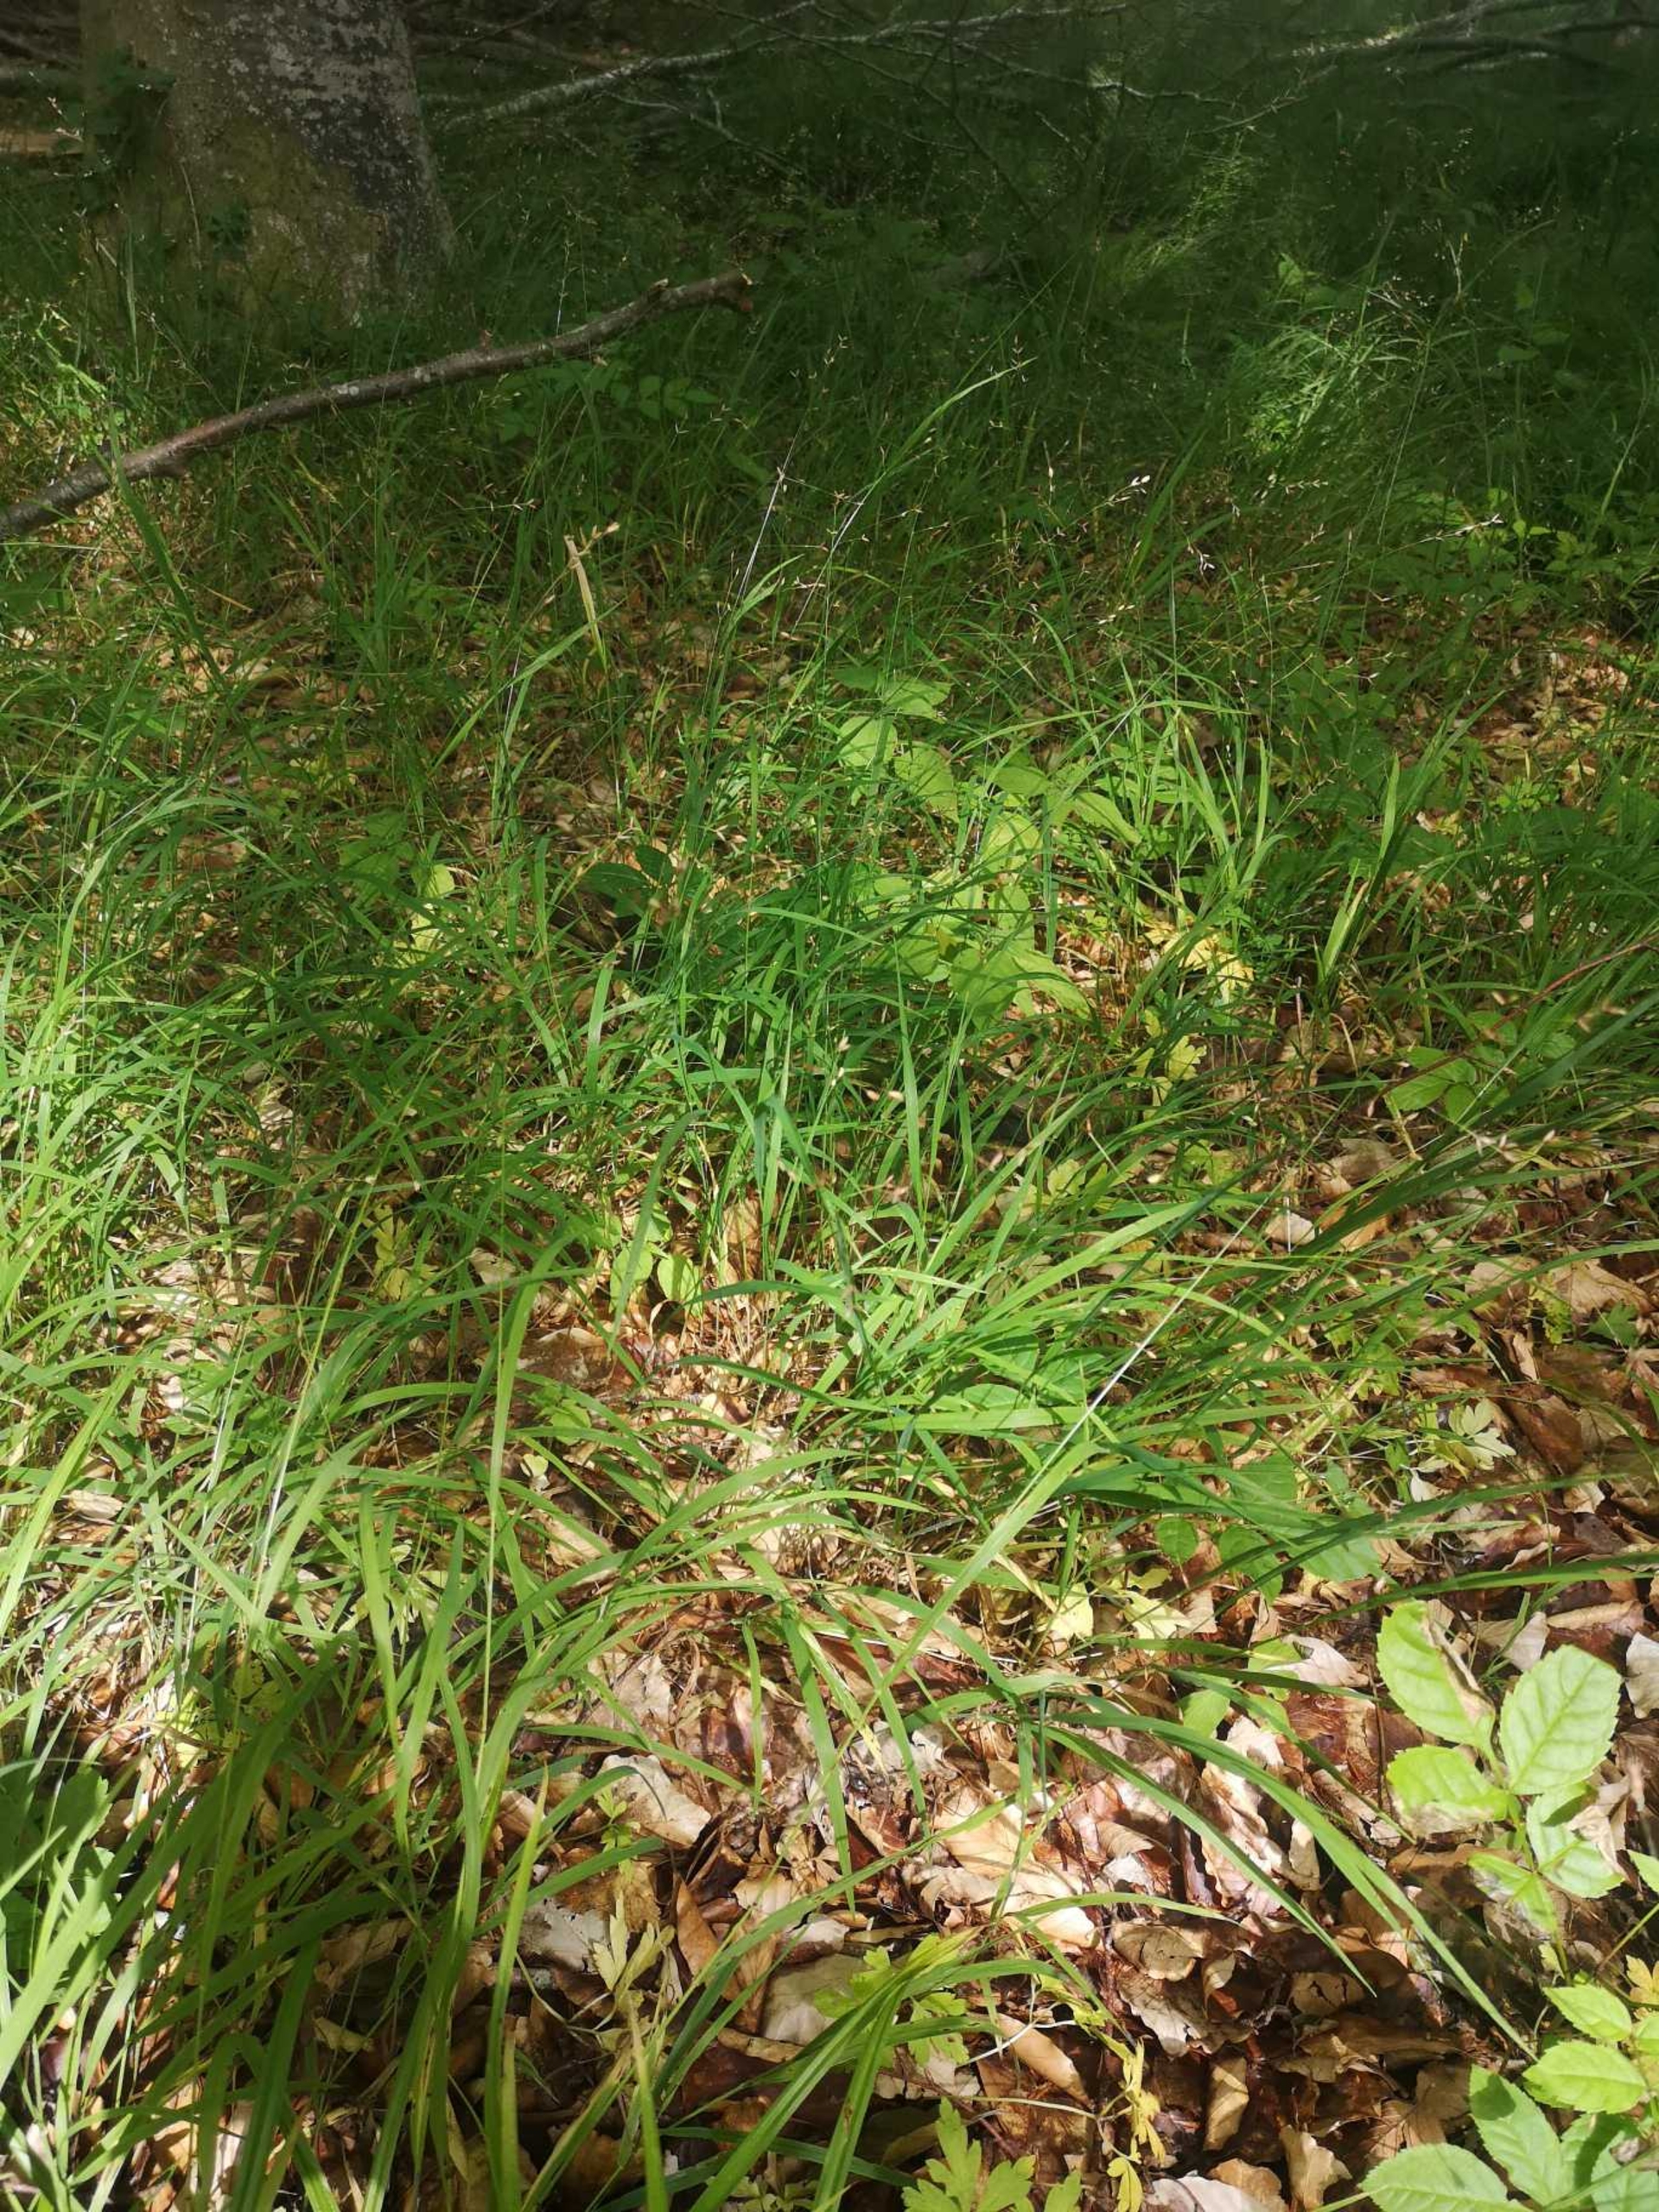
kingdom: Plantae
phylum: Tracheophyta
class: Liliopsida
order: Poales
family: Poaceae
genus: Melica
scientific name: Melica uniflora
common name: Enblomstret flitteraks
